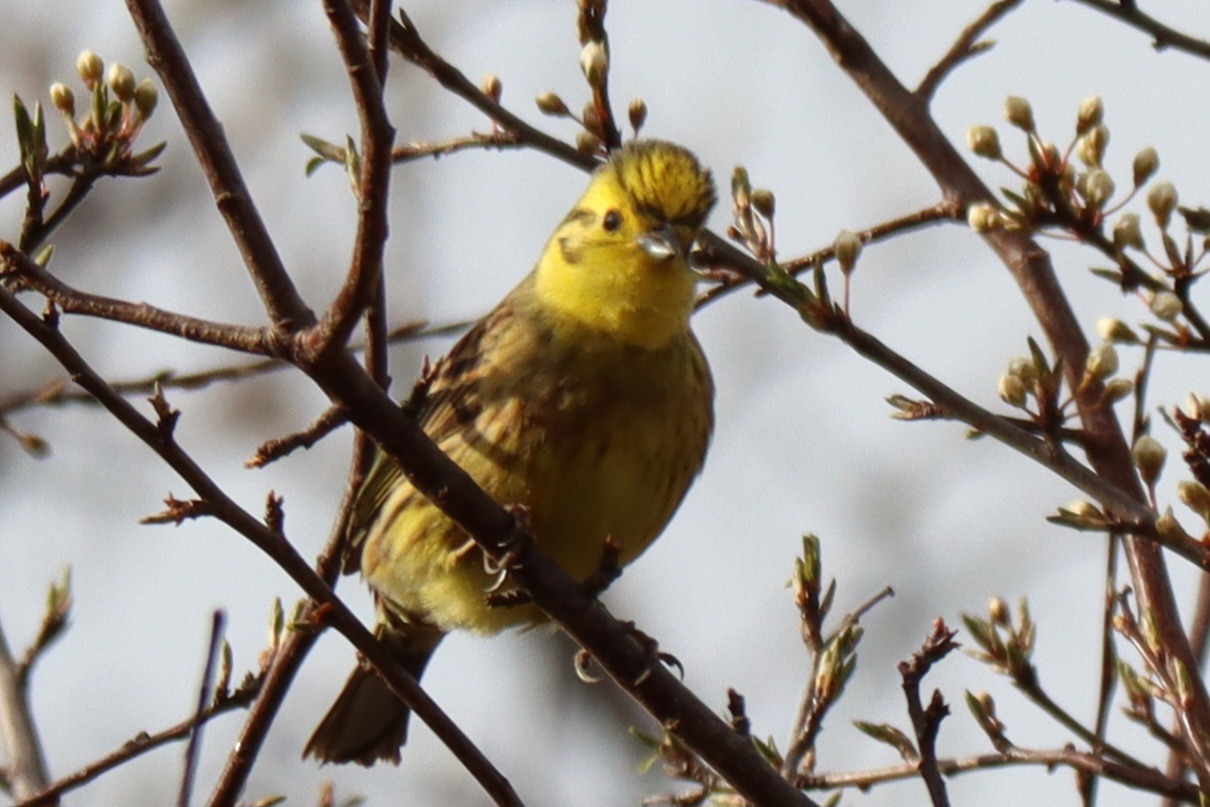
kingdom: Animalia
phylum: Chordata
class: Aves
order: Passeriformes
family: Emberizidae
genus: Emberiza
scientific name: Emberiza citrinella
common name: Gulspurv
